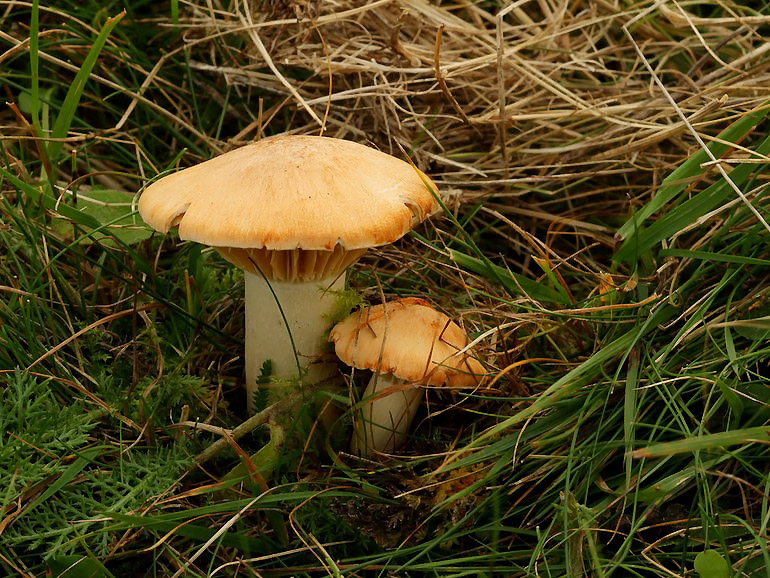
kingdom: Fungi
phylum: Basidiomycota
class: Agaricomycetes
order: Agaricales
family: Hygrophoraceae
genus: Cuphophyllus
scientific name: Cuphophyllus pratensis
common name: eng-vokshat
